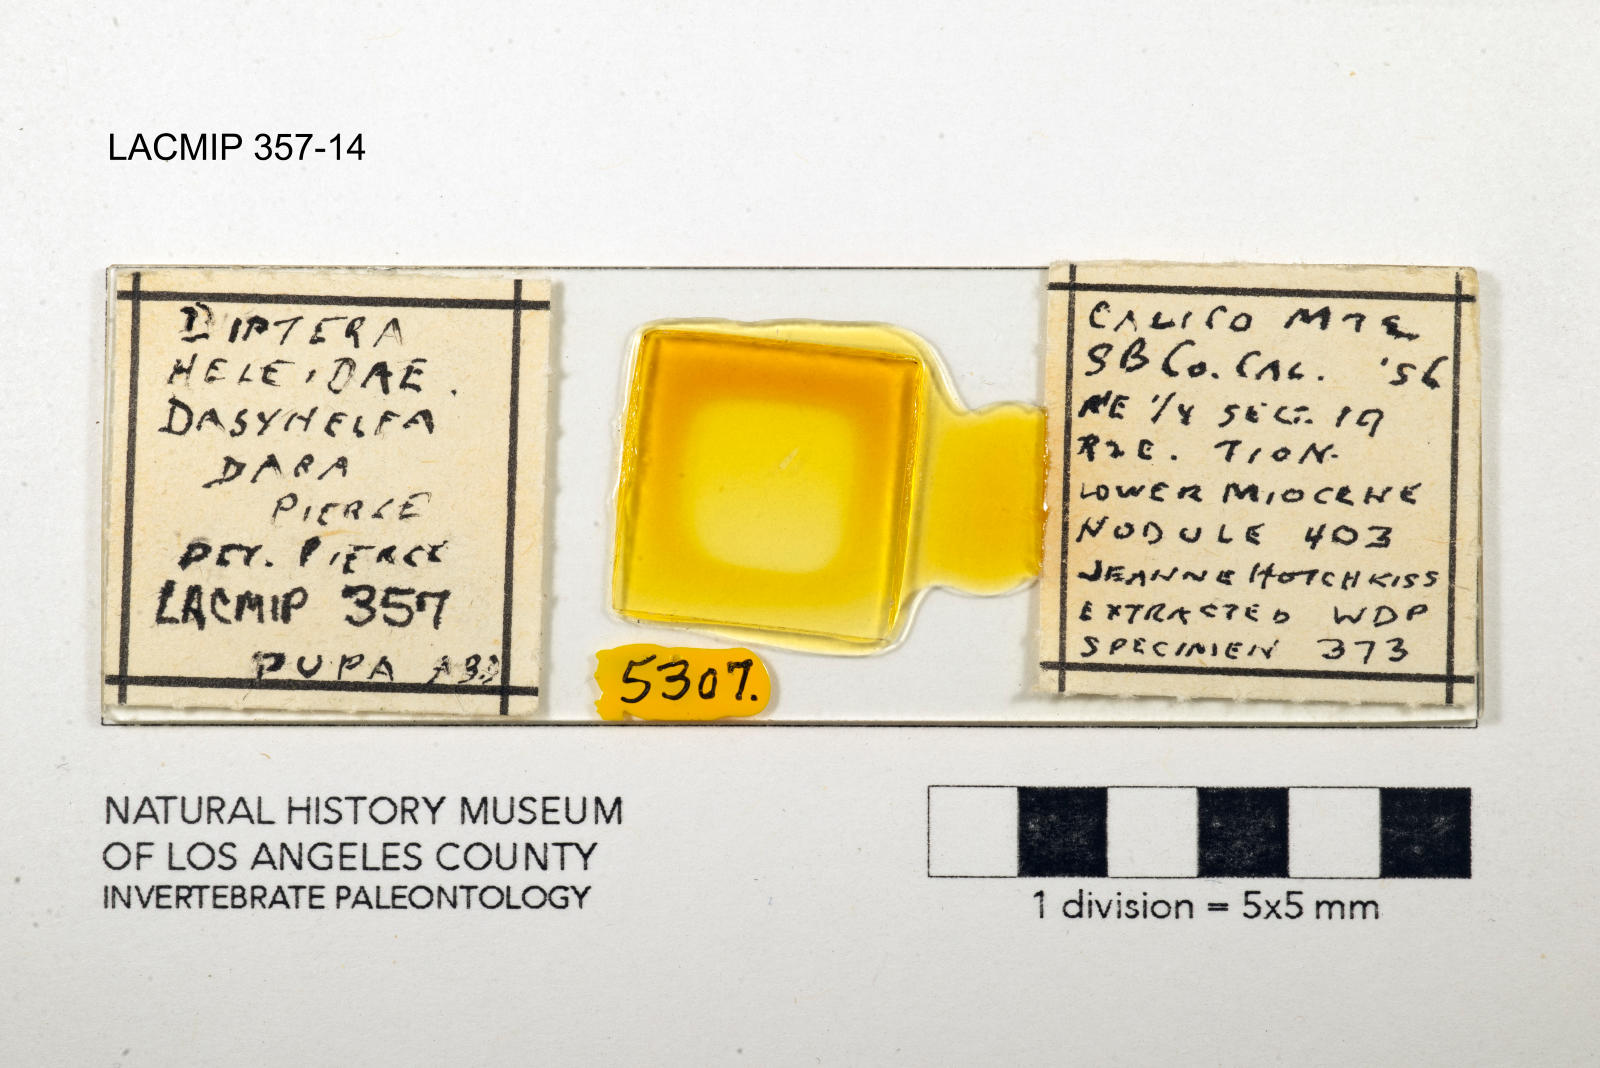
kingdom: Animalia
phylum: Arthropoda
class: Insecta
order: Diptera
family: Ceratopogonidae
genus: Dasyhelea
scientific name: Dasyhelea dara
